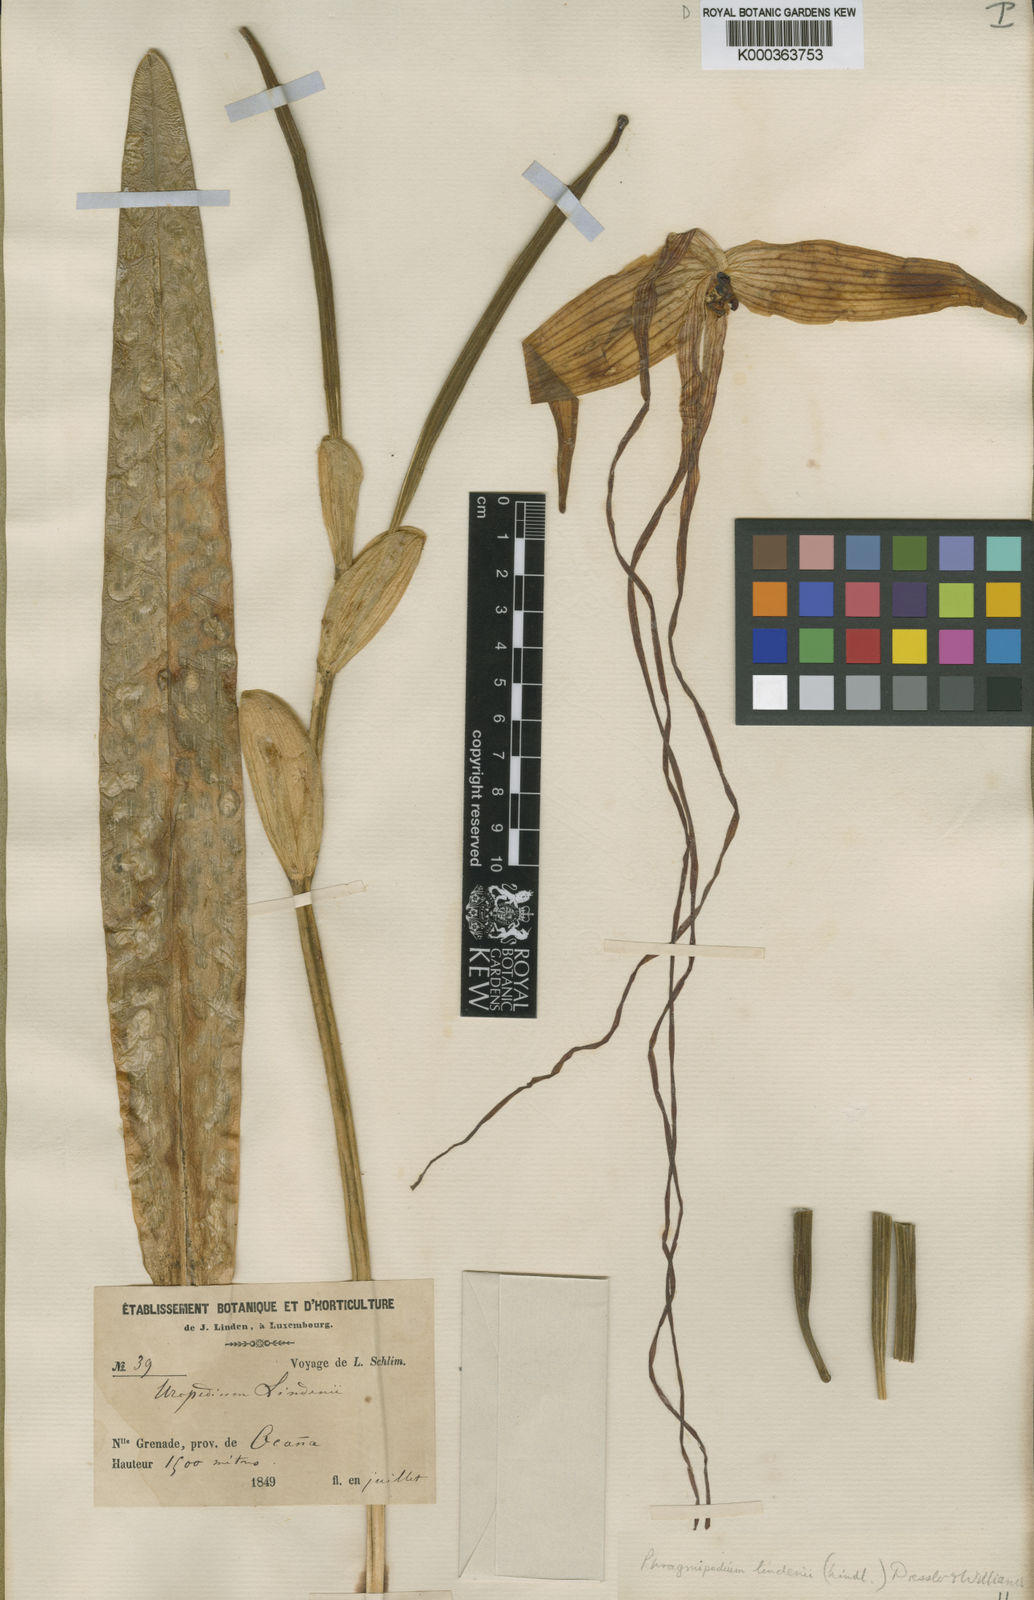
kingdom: Plantae
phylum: Tracheophyta
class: Liliopsida
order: Asparagales
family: Orchidaceae
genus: Phragmipedium
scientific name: Phragmipedium
